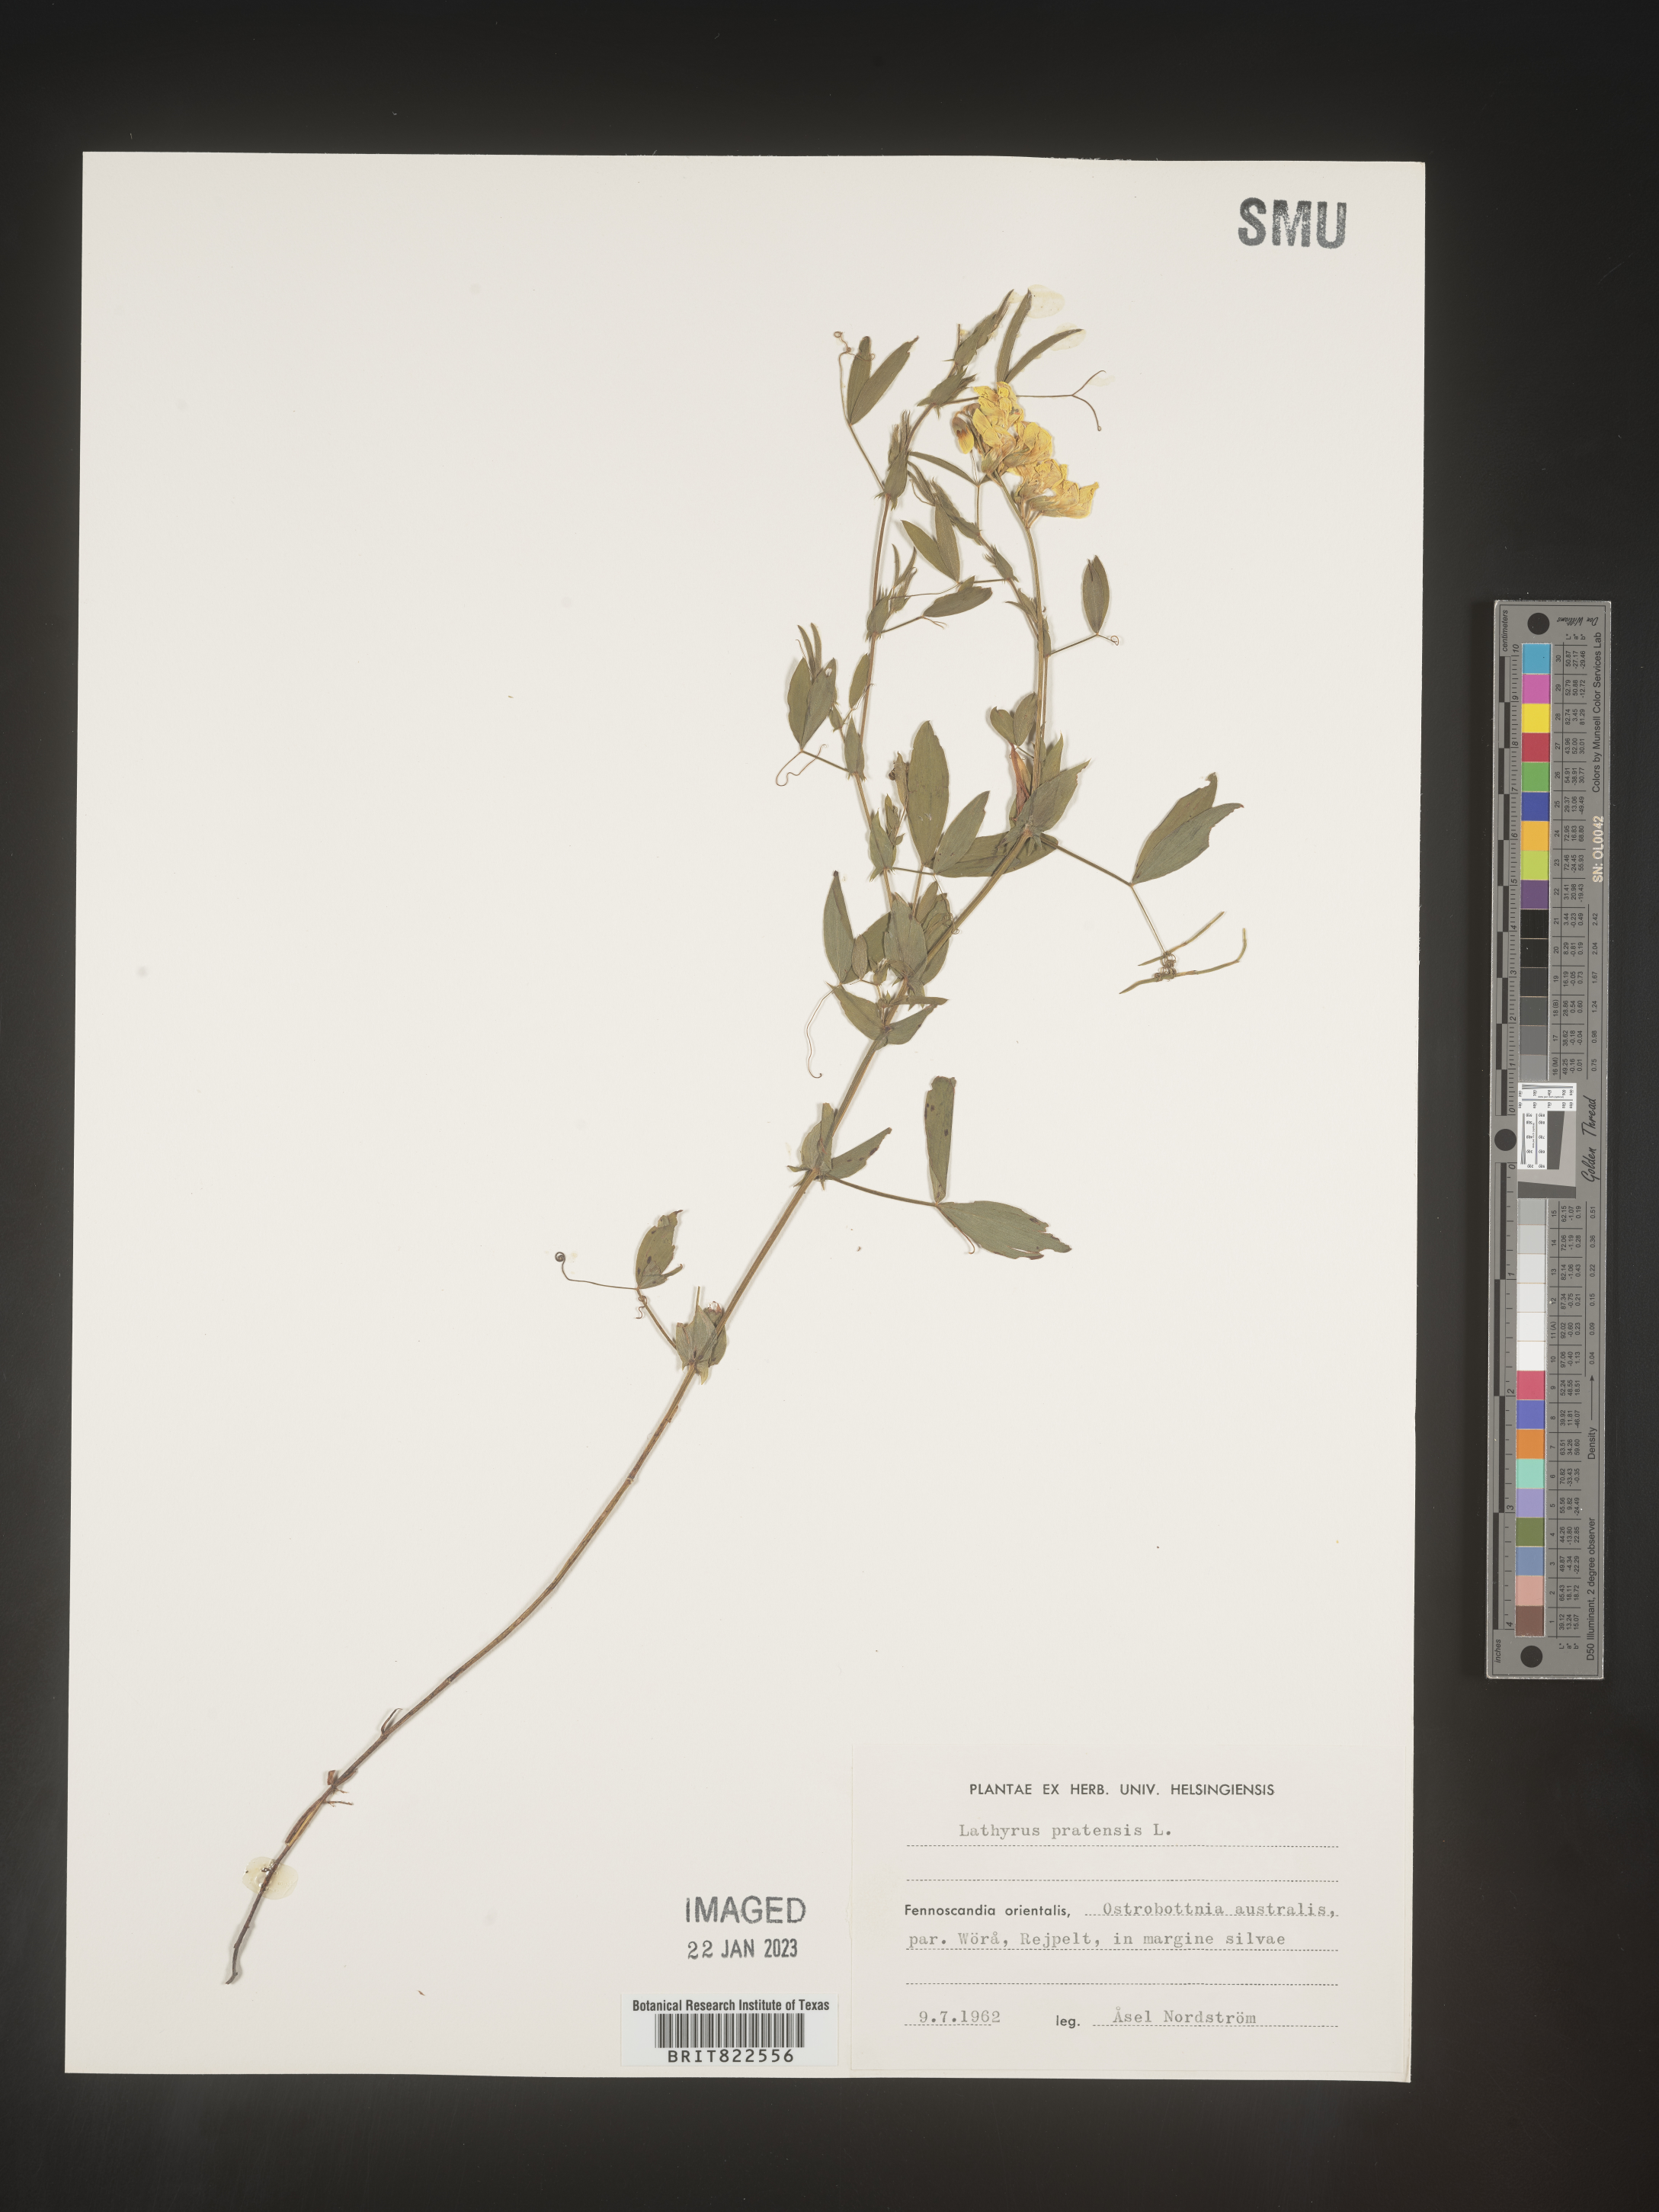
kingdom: Plantae
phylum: Tracheophyta
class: Magnoliopsida
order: Fabales
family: Fabaceae
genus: Lathyrus
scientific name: Lathyrus
